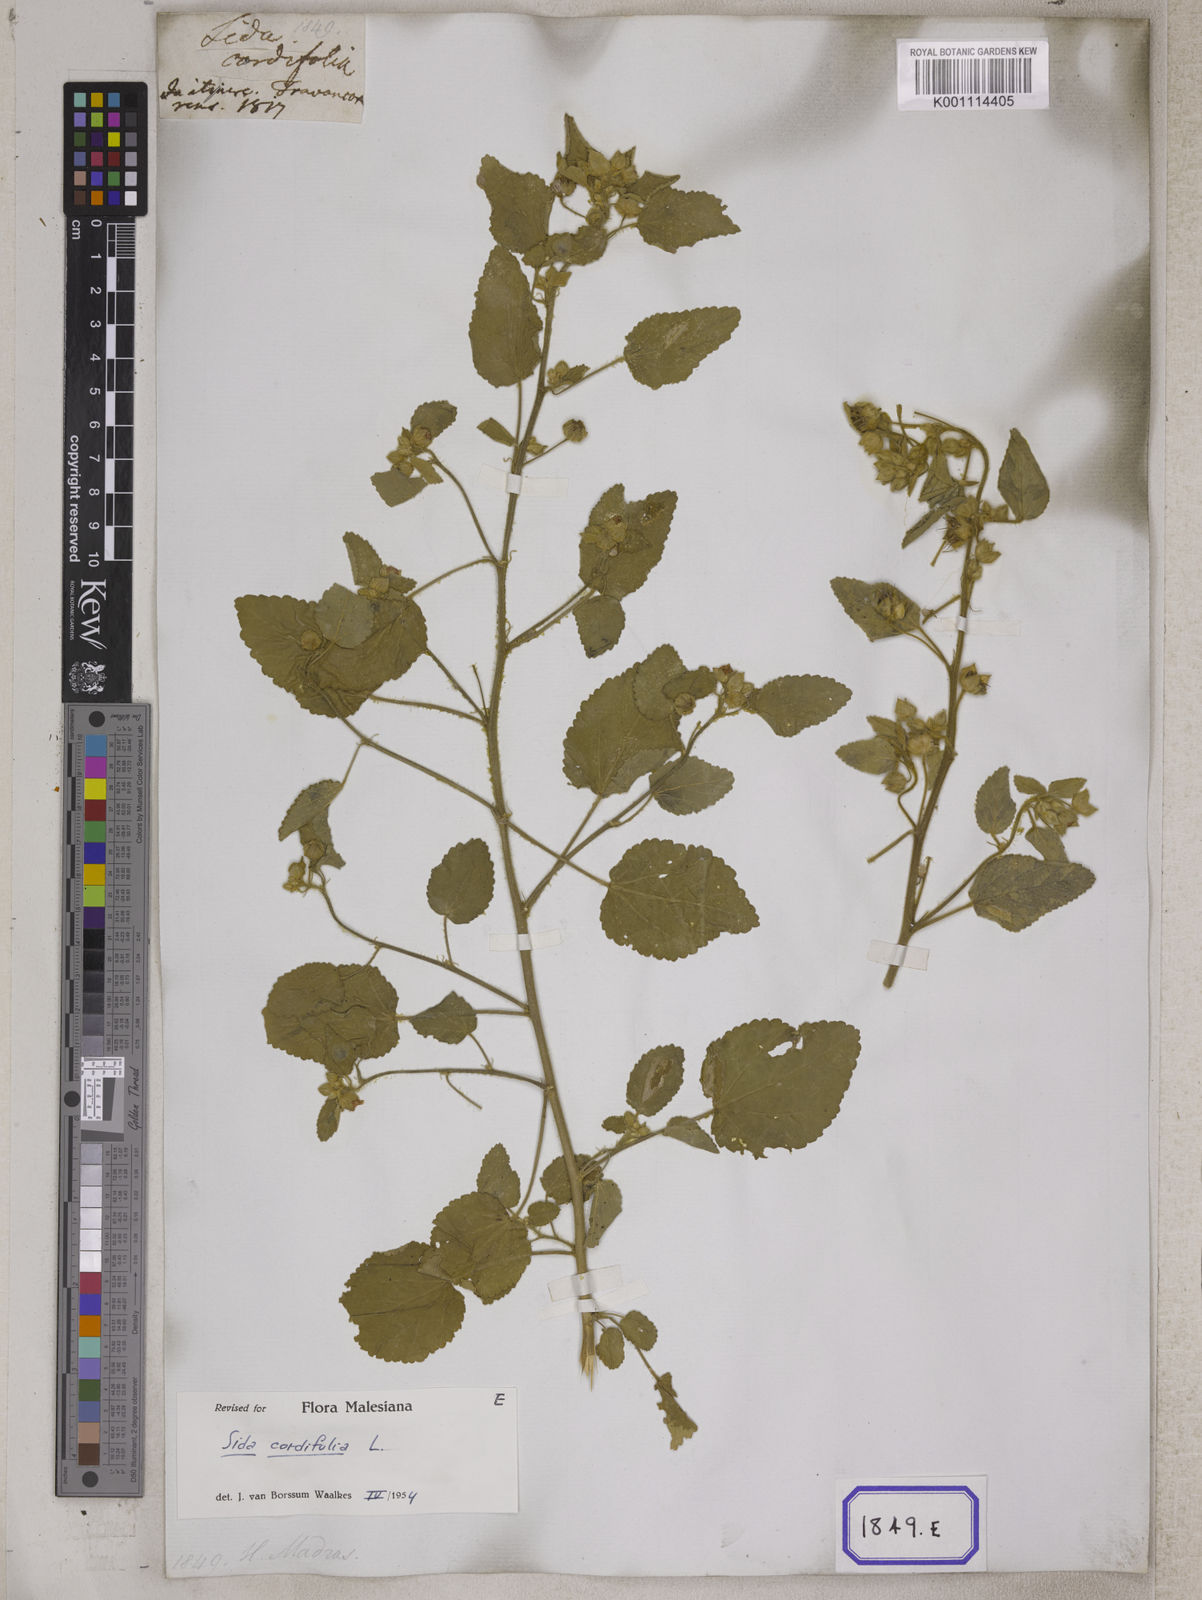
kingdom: Plantae
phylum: Tracheophyta
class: Magnoliopsida
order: Malvales
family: Malvaceae
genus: Sida
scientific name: Sida cordifolia
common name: Ilima
